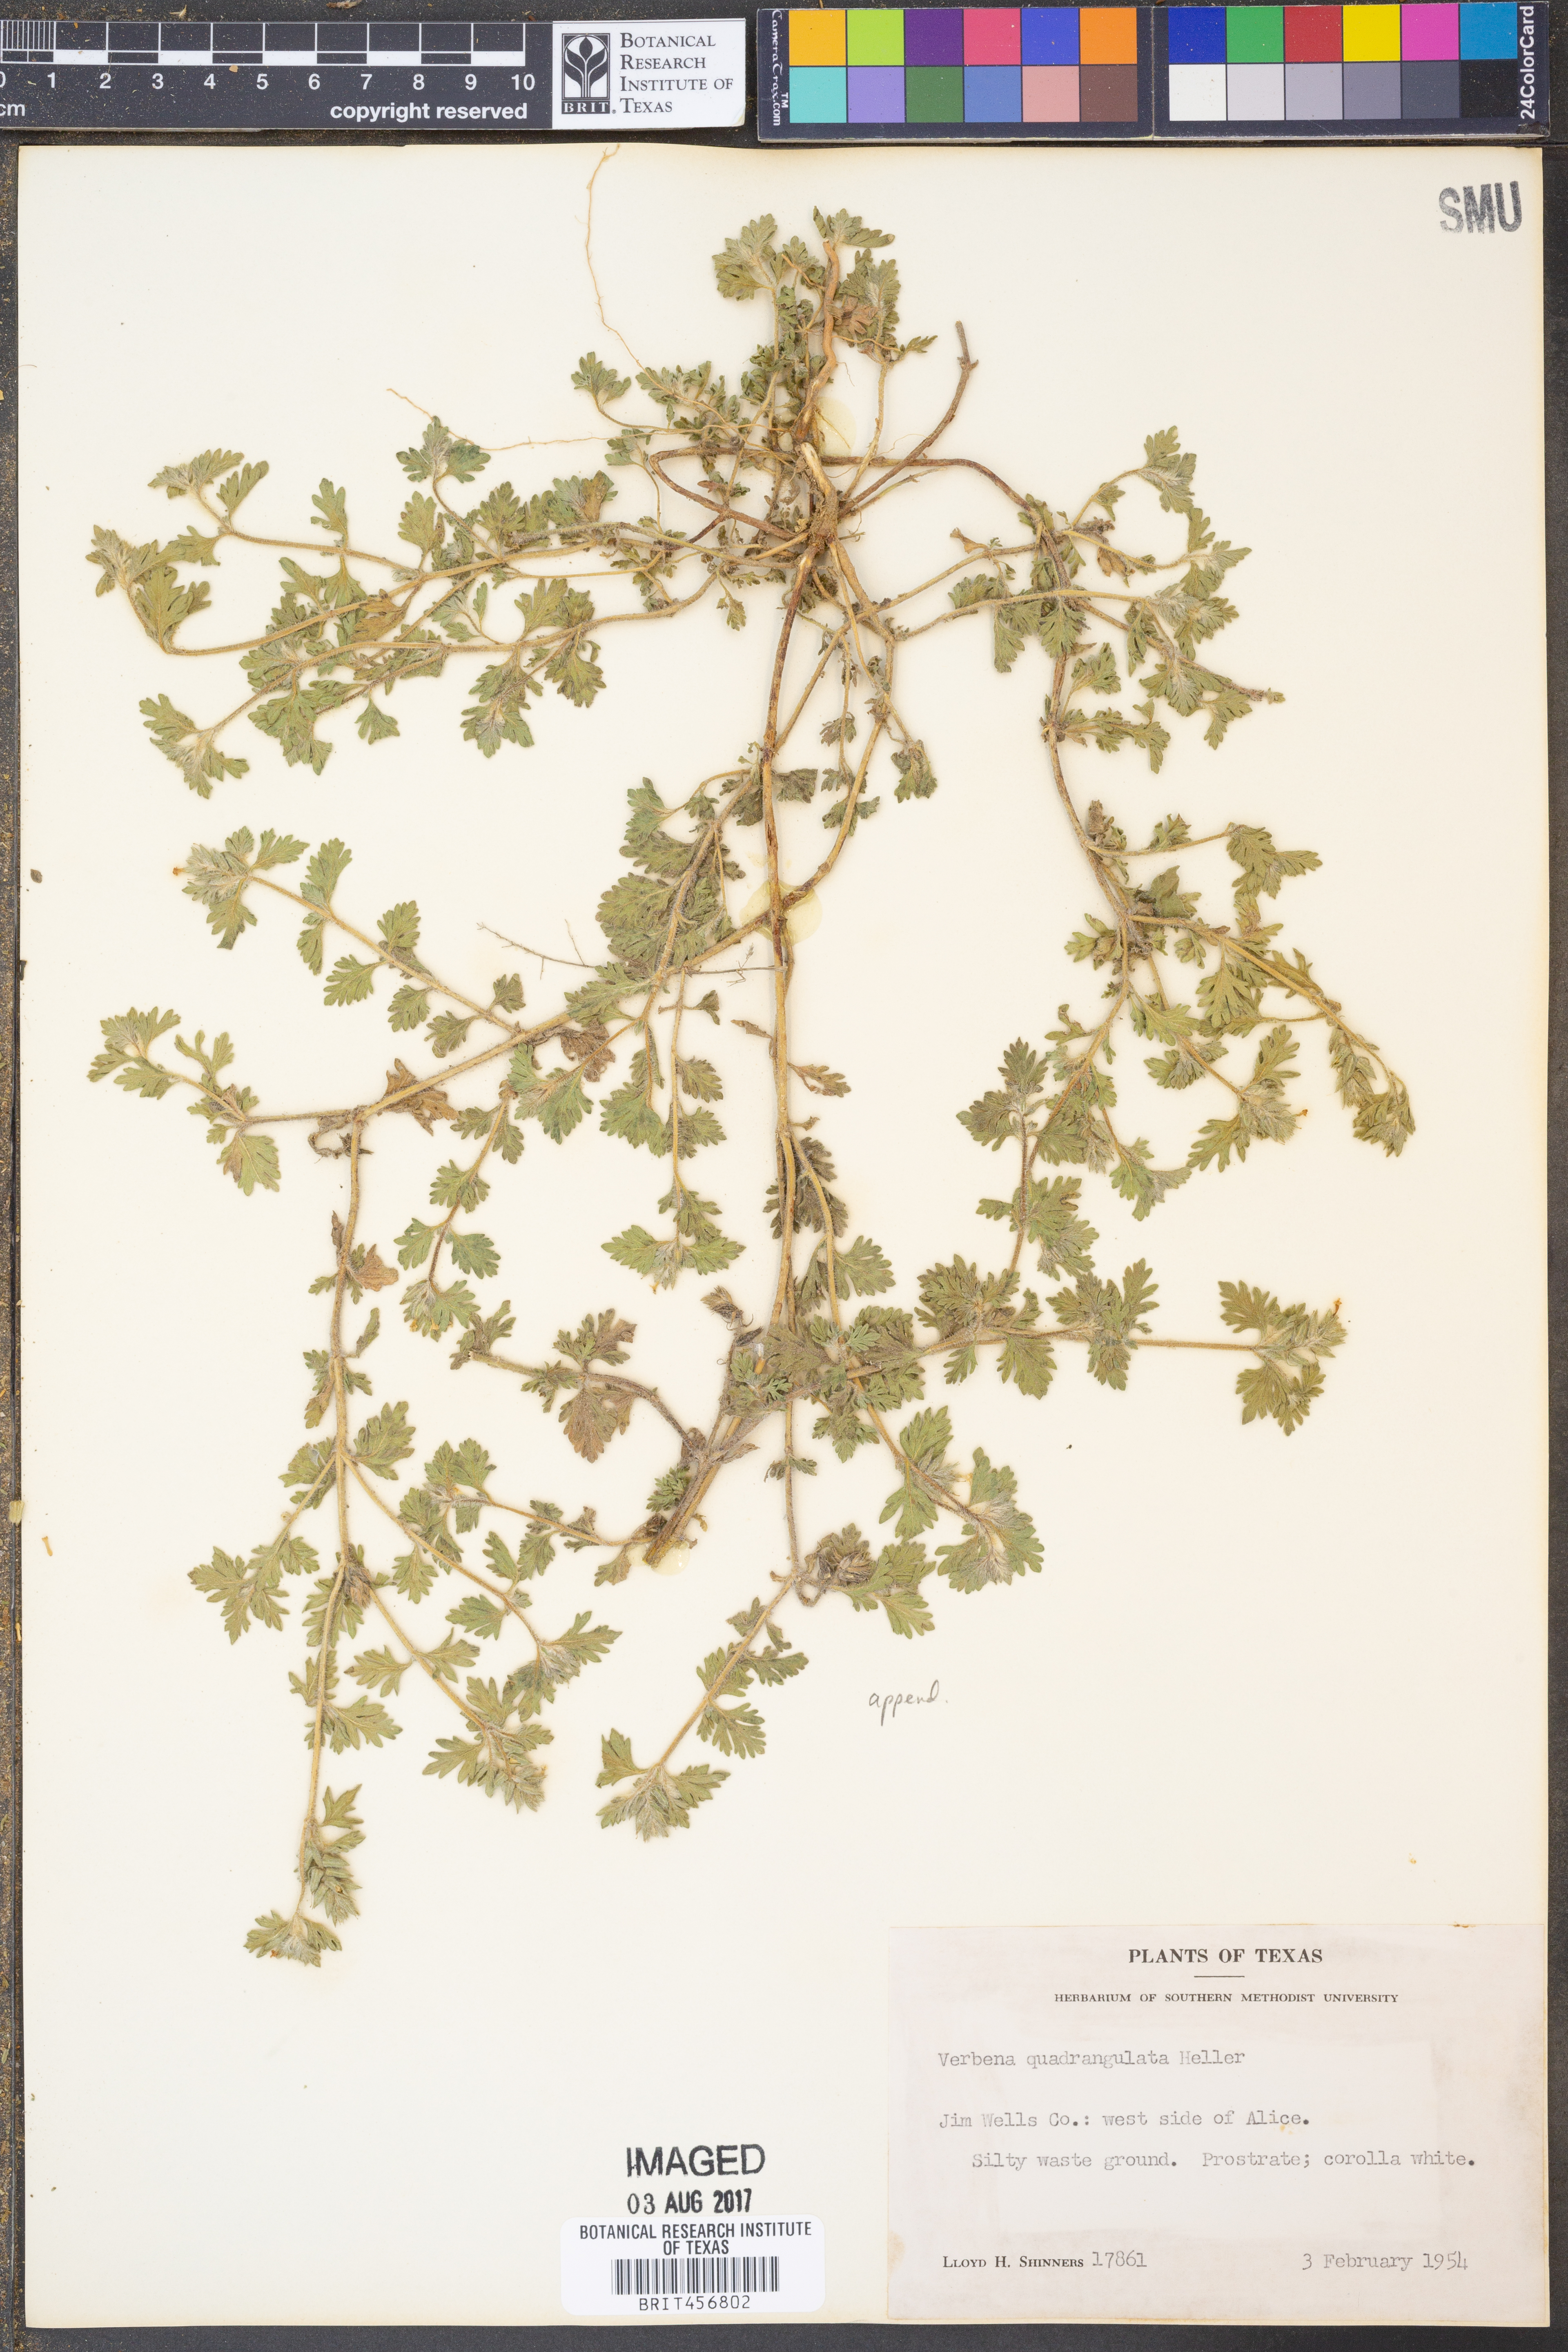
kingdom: Plantae
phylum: Tracheophyta
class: Magnoliopsida
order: Lamiales
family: Verbenaceae
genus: Verbena
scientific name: Verbena quadrangulata
